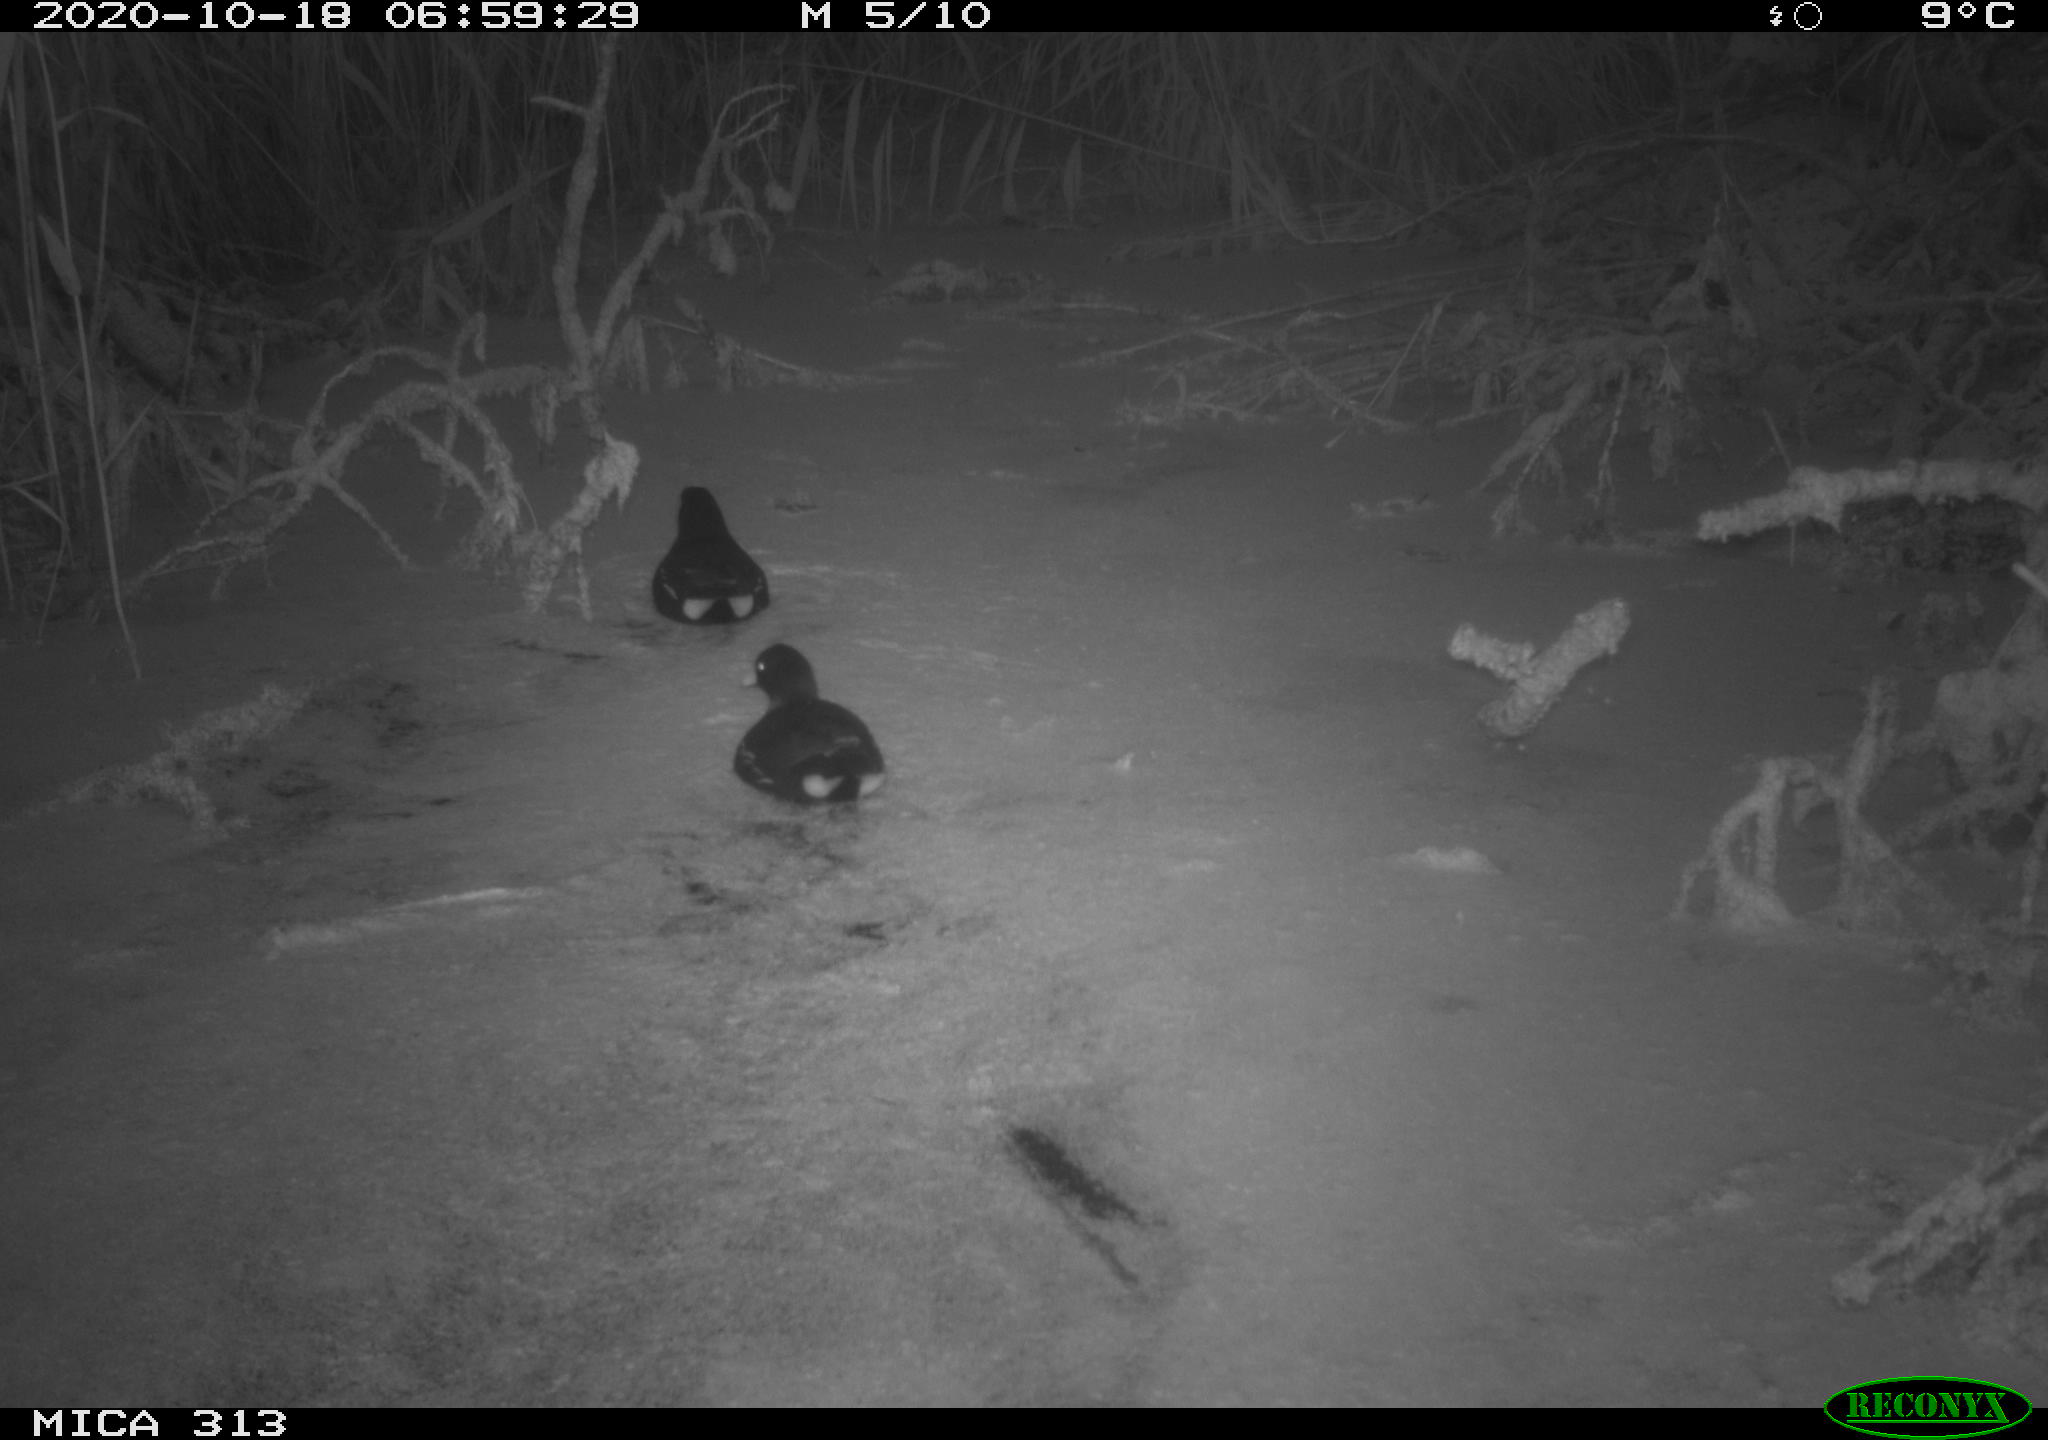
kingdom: Animalia
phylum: Chordata
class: Aves
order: Gruiformes
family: Rallidae
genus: Gallinula
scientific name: Gallinula chloropus
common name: Common moorhen
